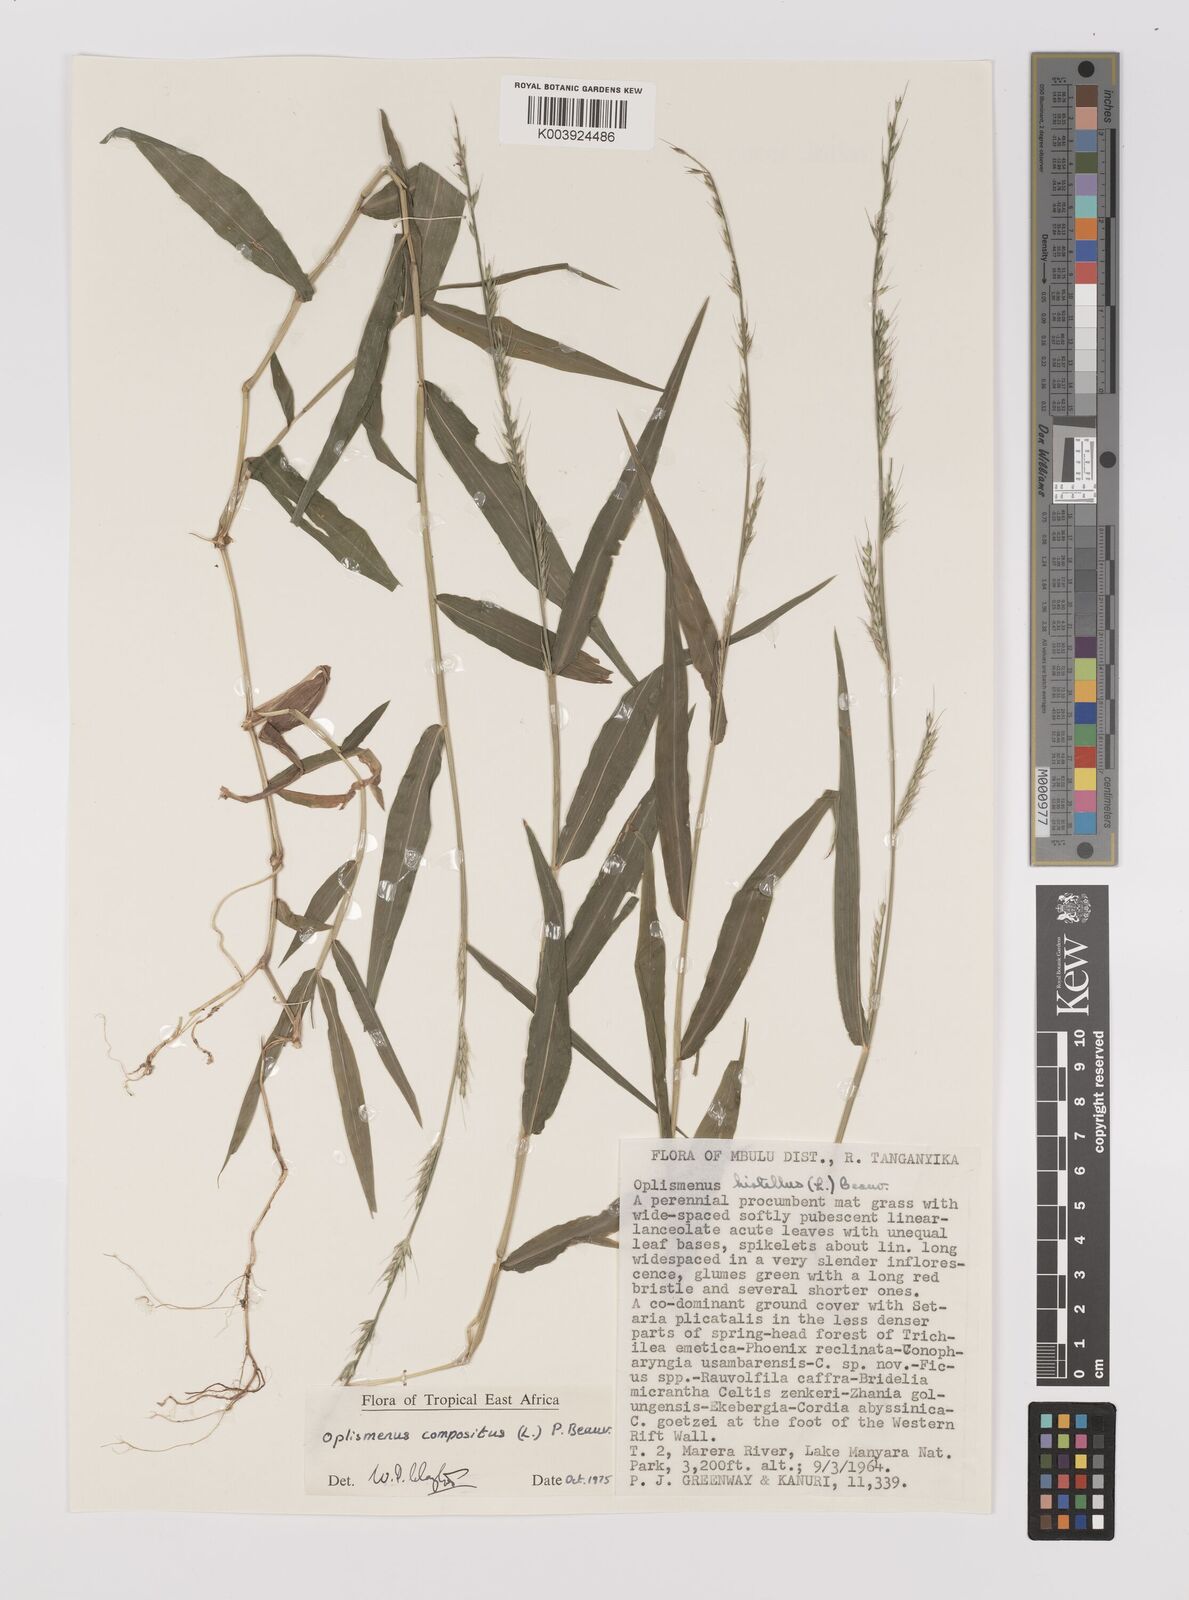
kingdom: Plantae
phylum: Tracheophyta
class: Liliopsida
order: Poales
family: Poaceae
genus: Oplismenus
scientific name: Oplismenus compositus
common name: Running mountain grass
